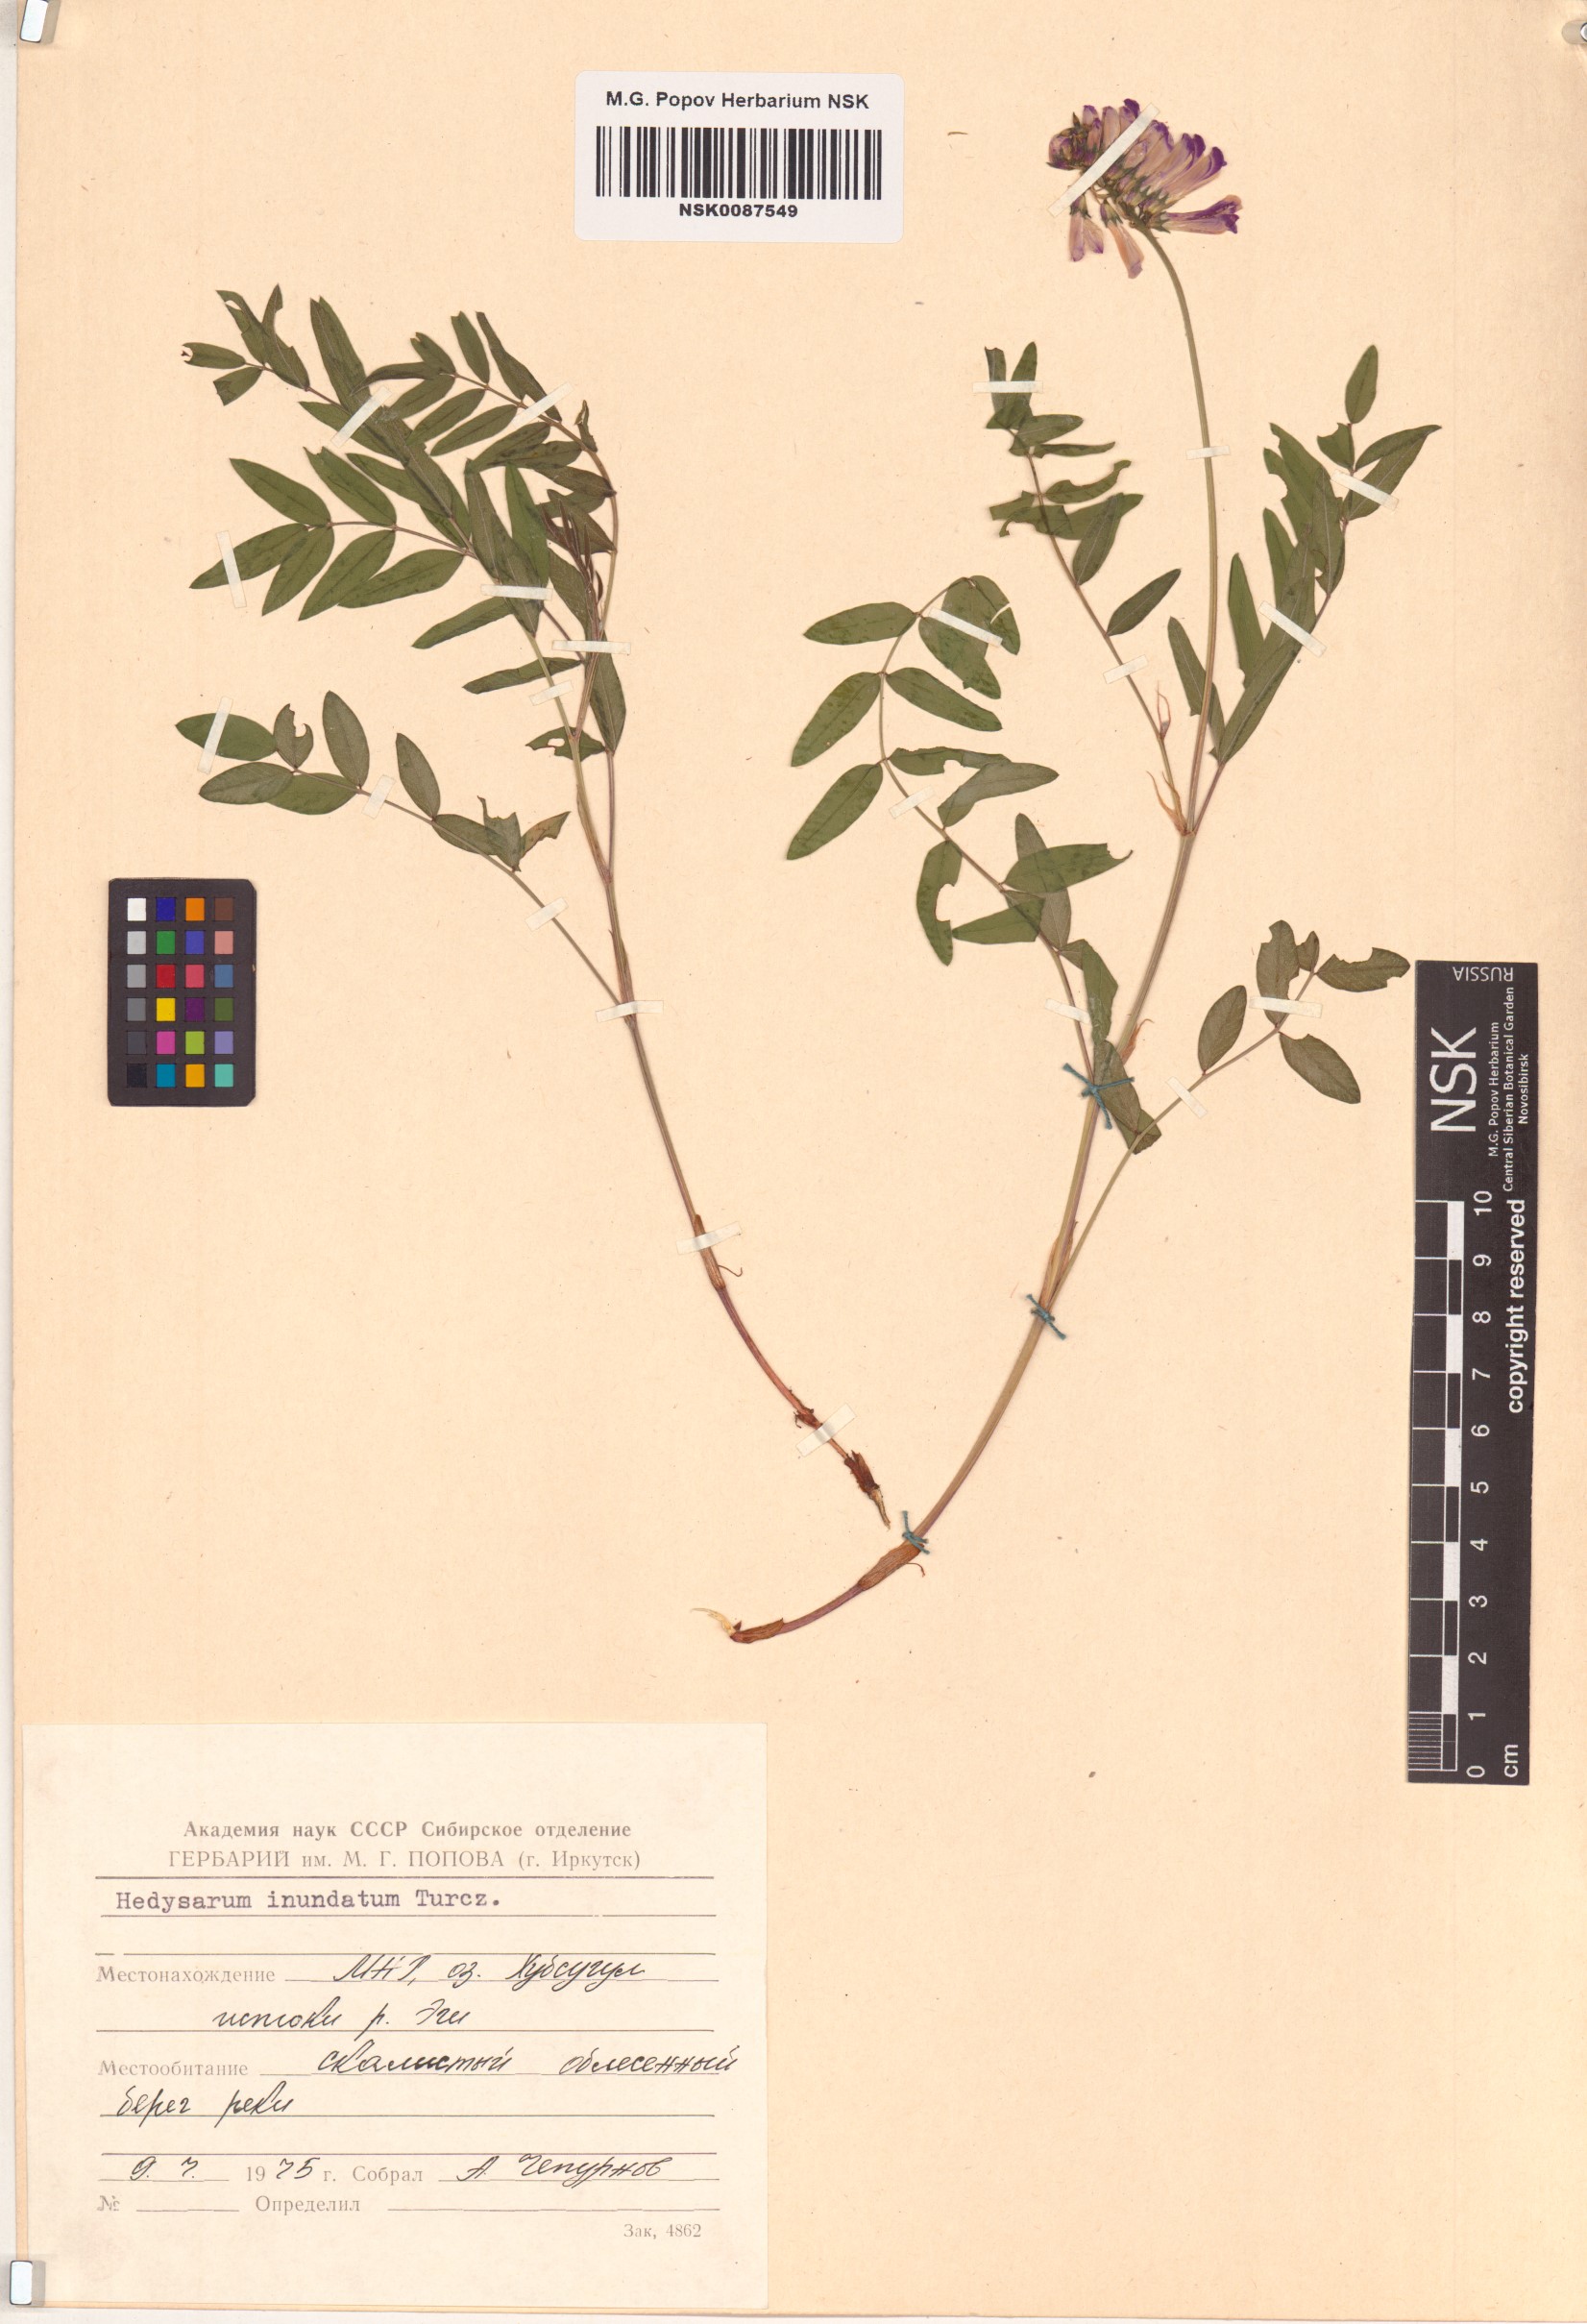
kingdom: Plantae
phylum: Tracheophyta
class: Magnoliopsida
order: Fabales
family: Fabaceae
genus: Hedysarum
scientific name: Hedysarum inundatum
